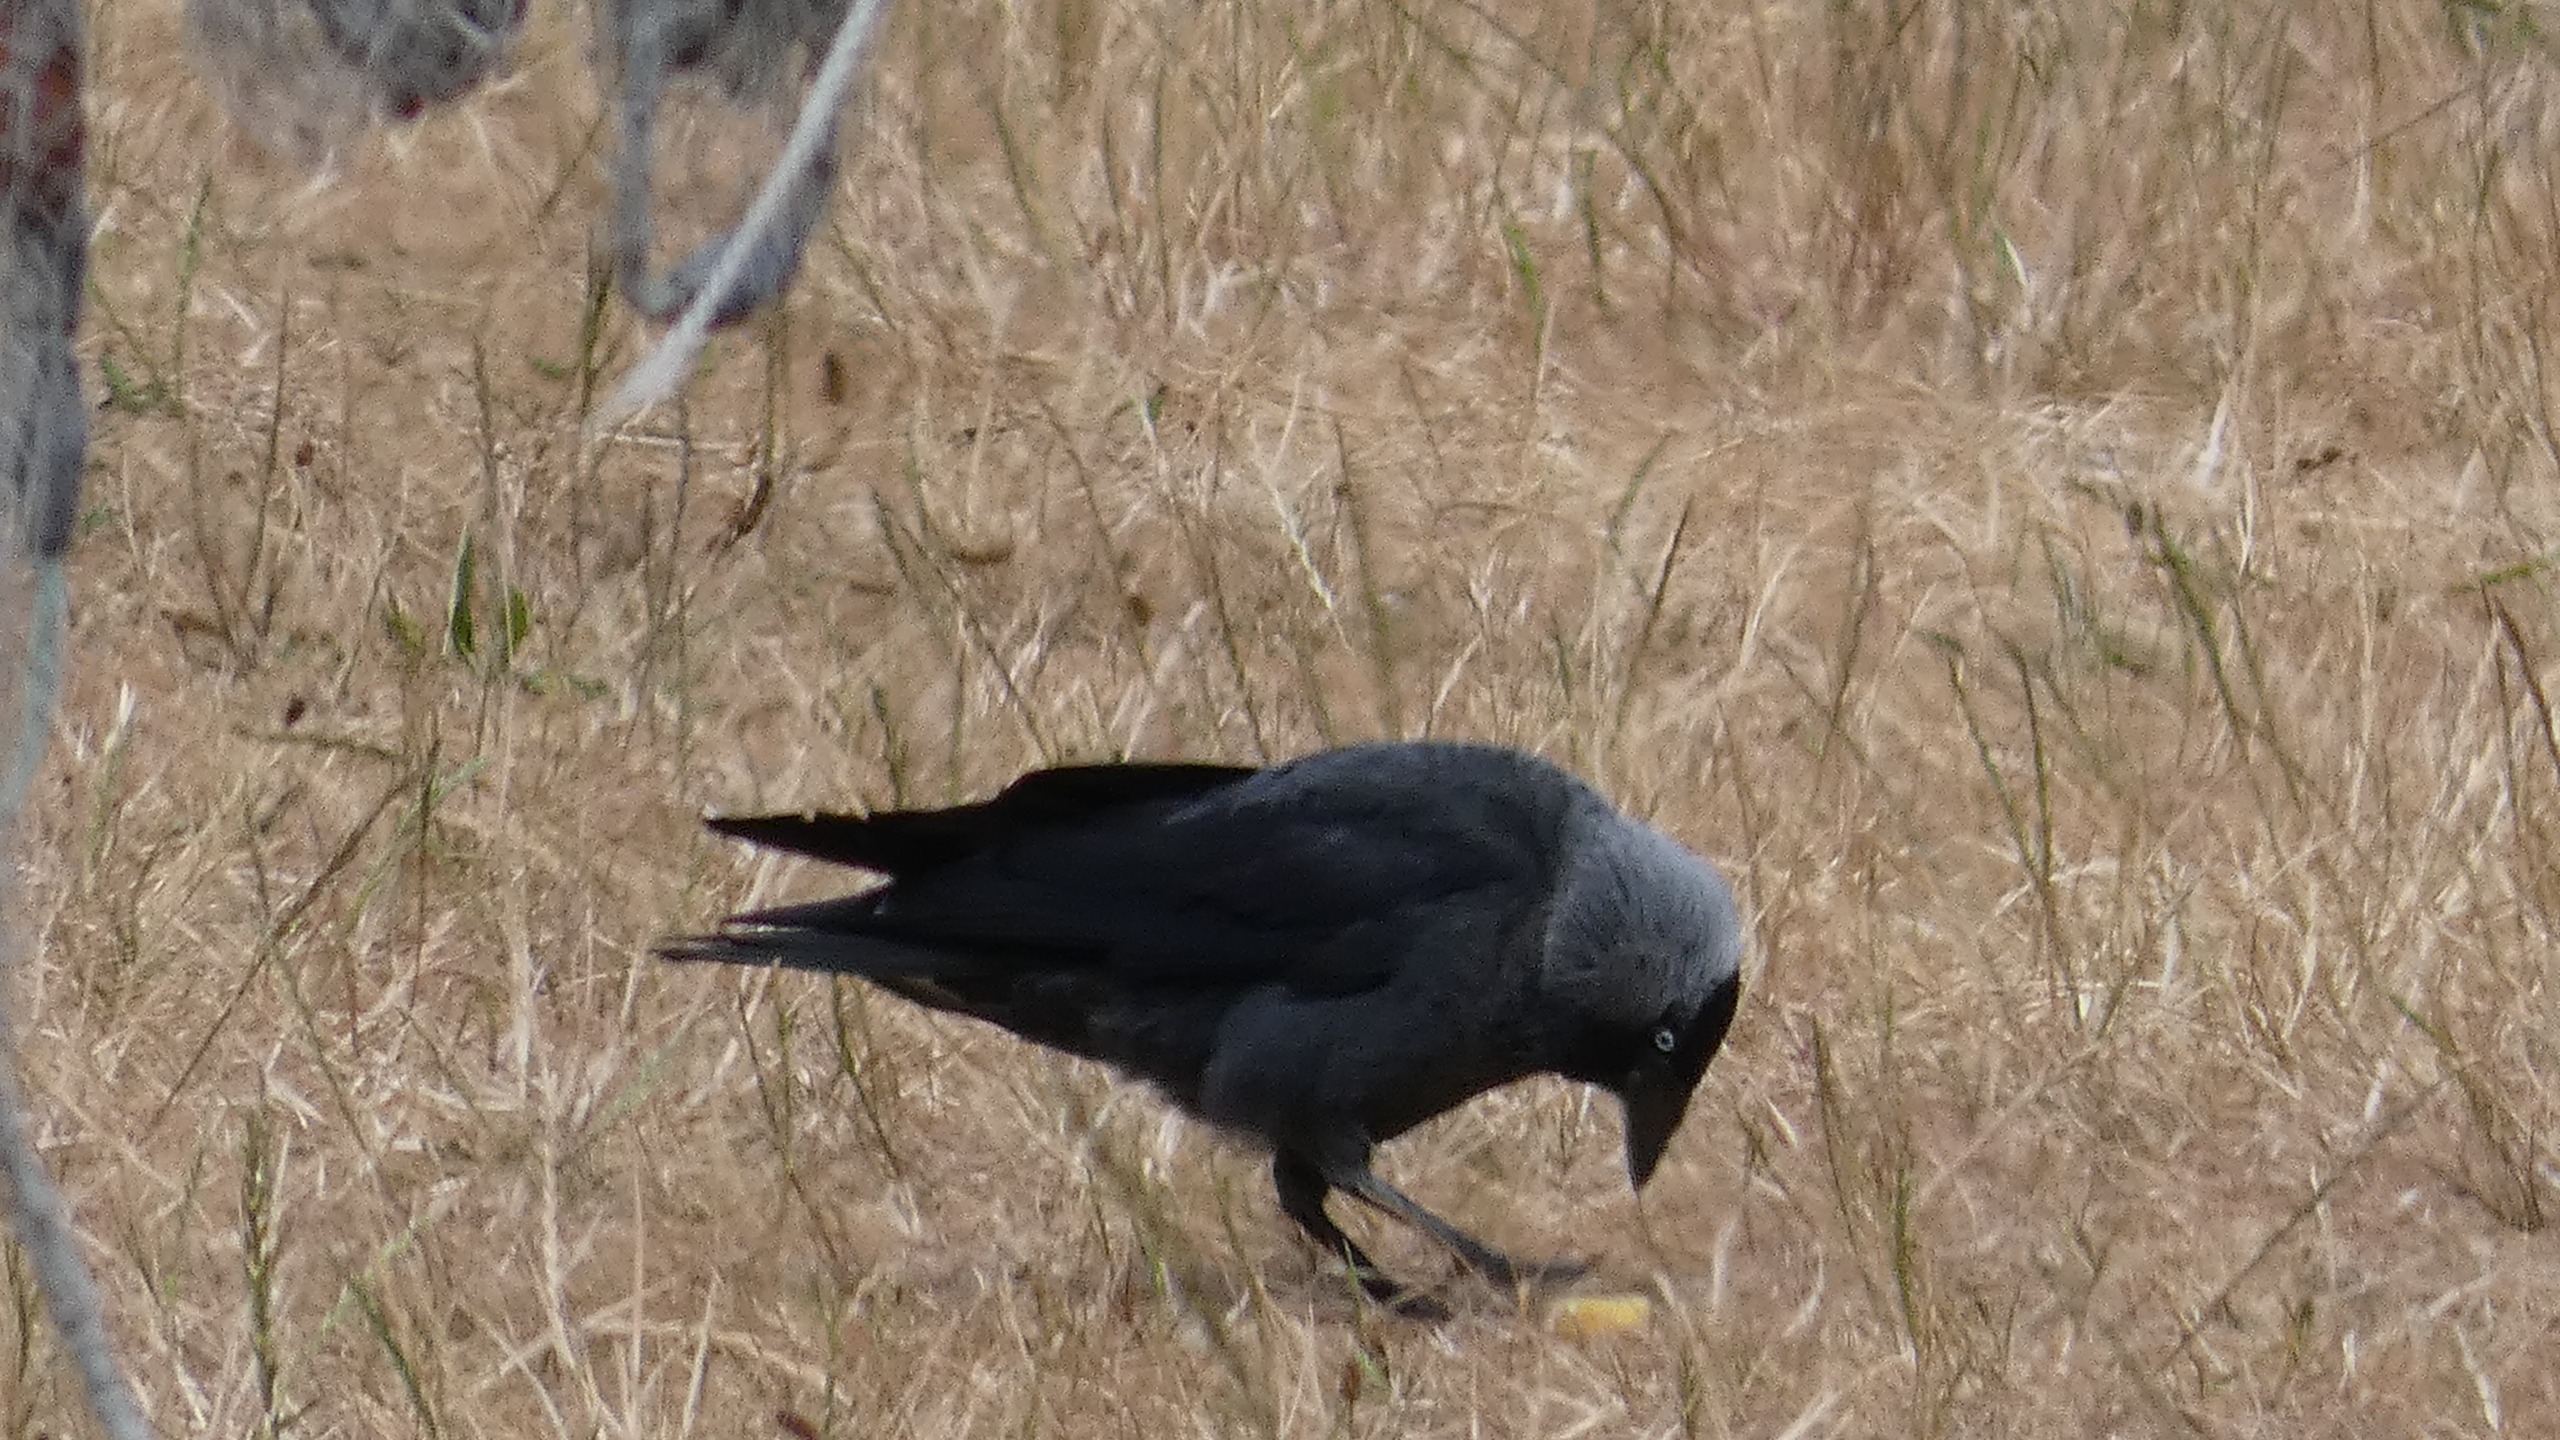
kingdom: Animalia
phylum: Chordata
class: Aves
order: Passeriformes
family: Corvidae
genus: Coloeus
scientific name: Coloeus monedula
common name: Allike
